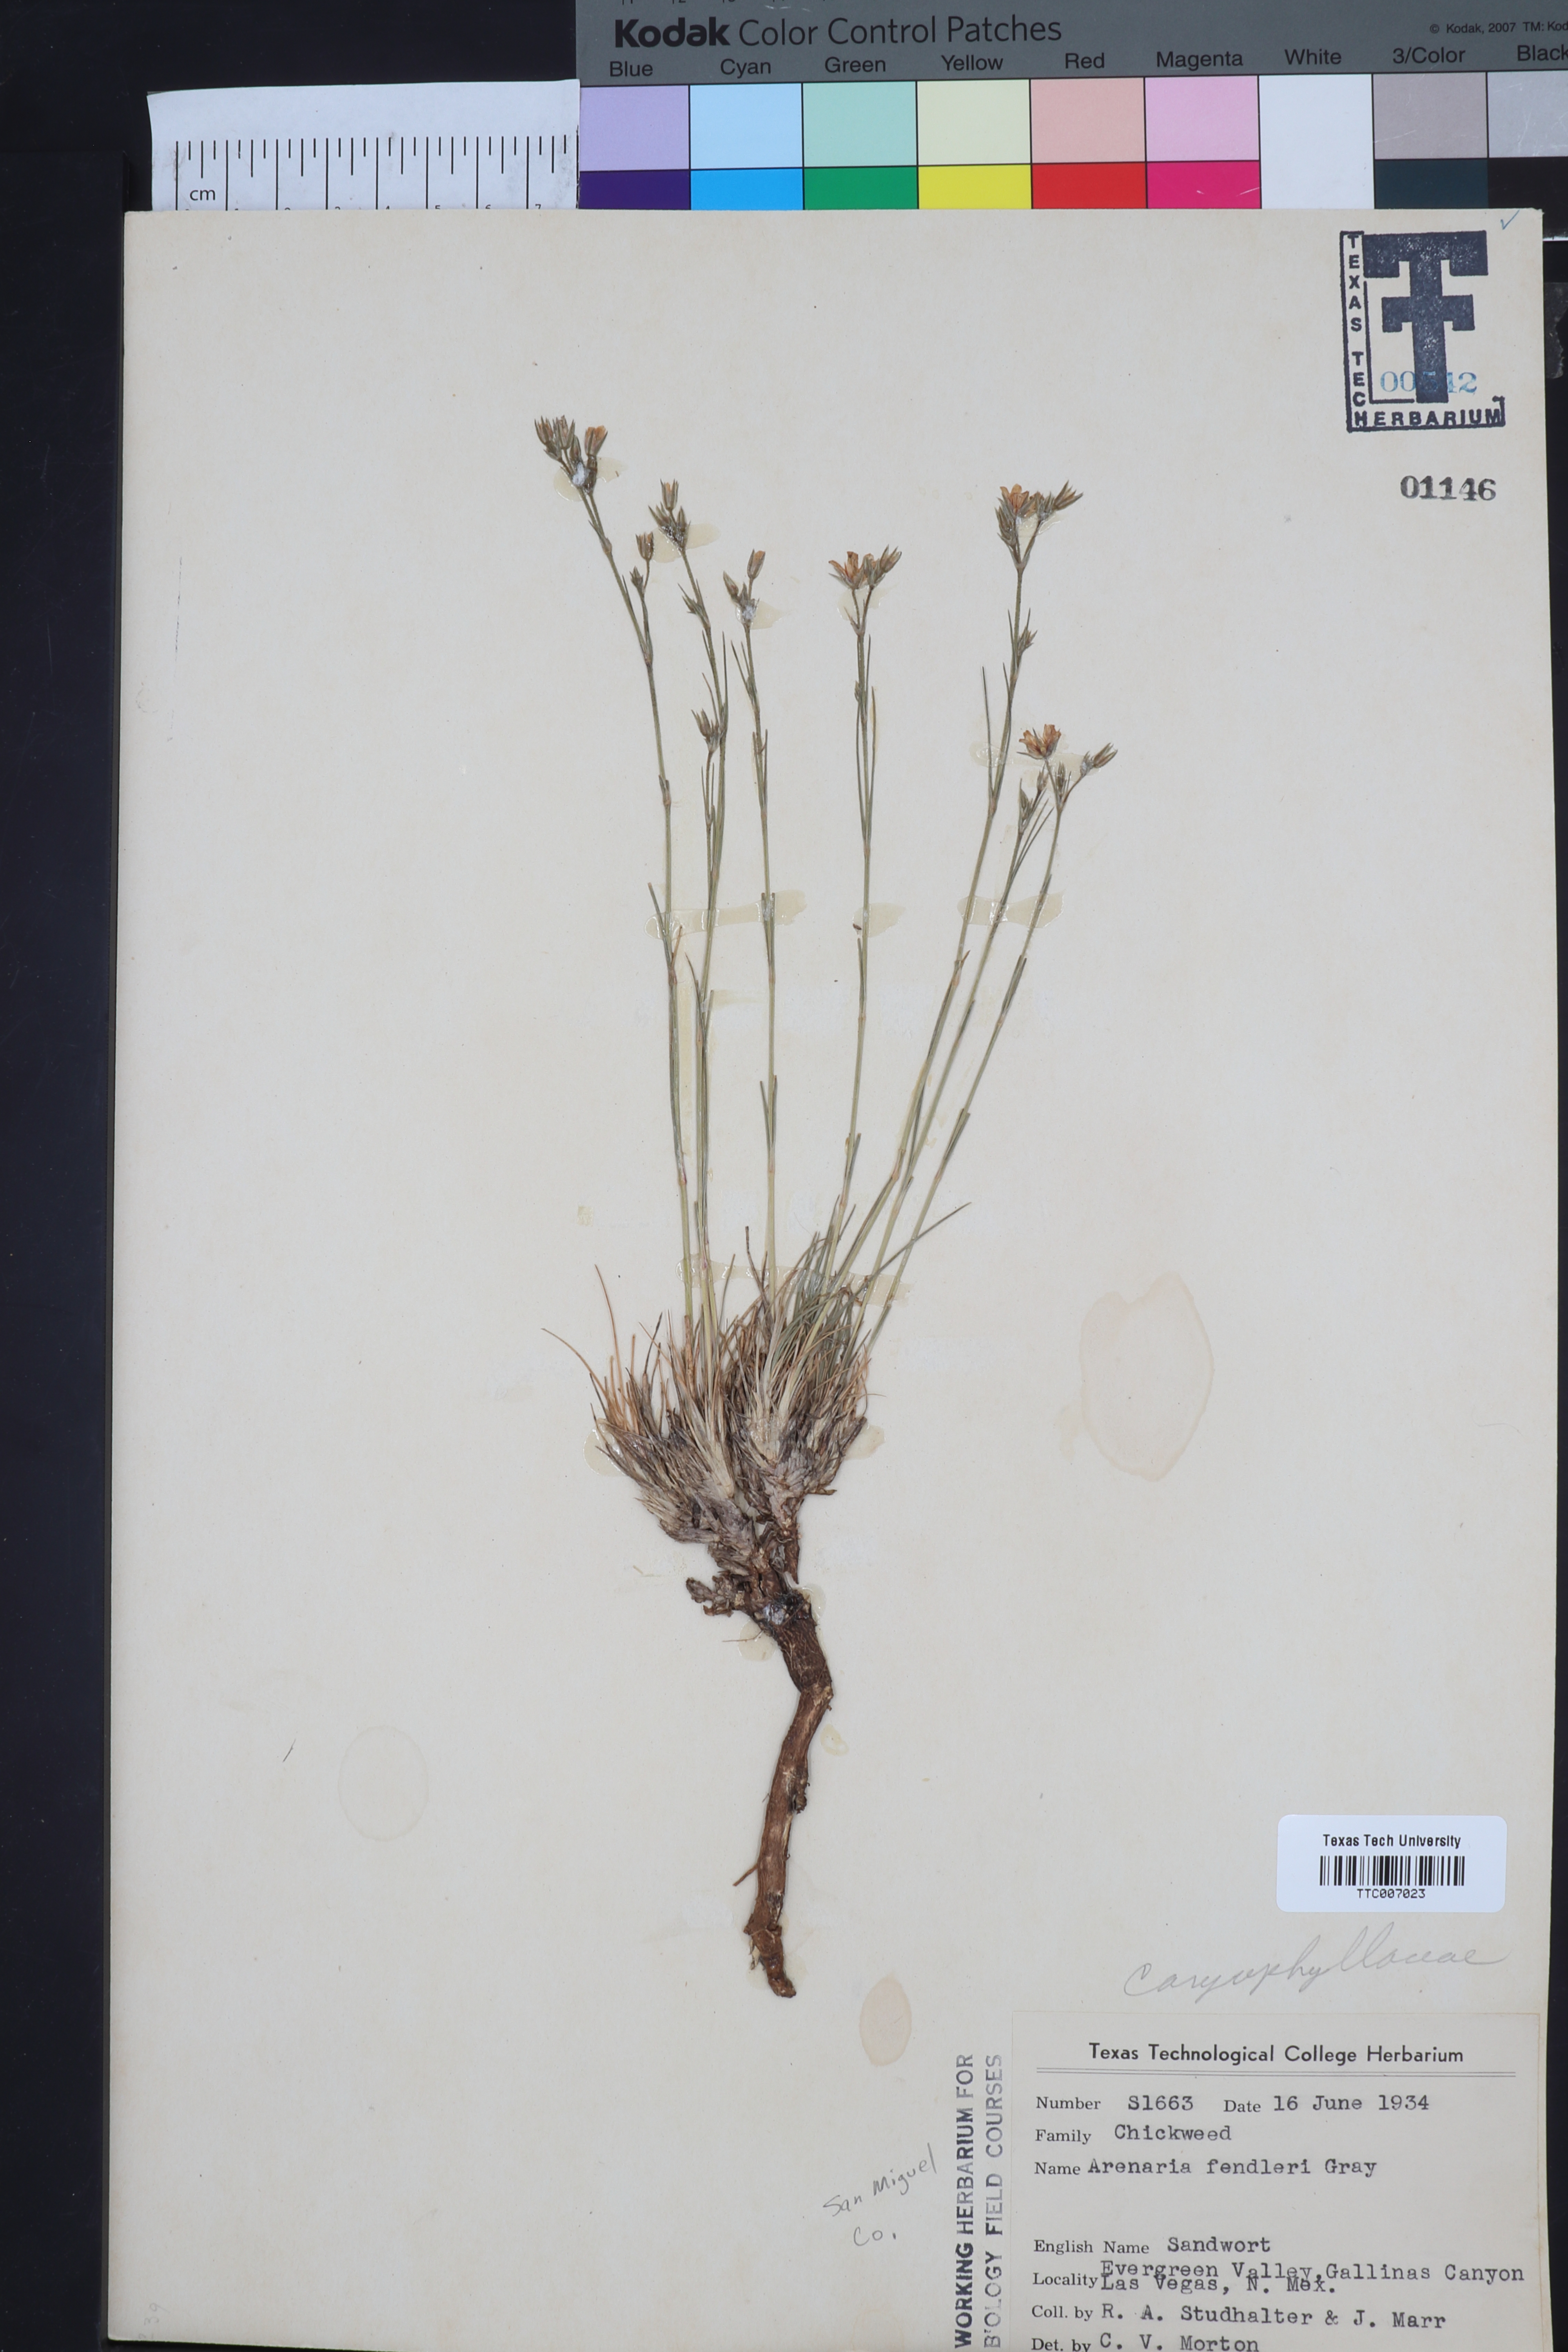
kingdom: Plantae
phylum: Tracheophyta
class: Magnoliopsida
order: Caryophyllales
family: Caryophyllaceae
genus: Eremogone
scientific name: Eremogone fendleri
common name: Fendler's sandwort
